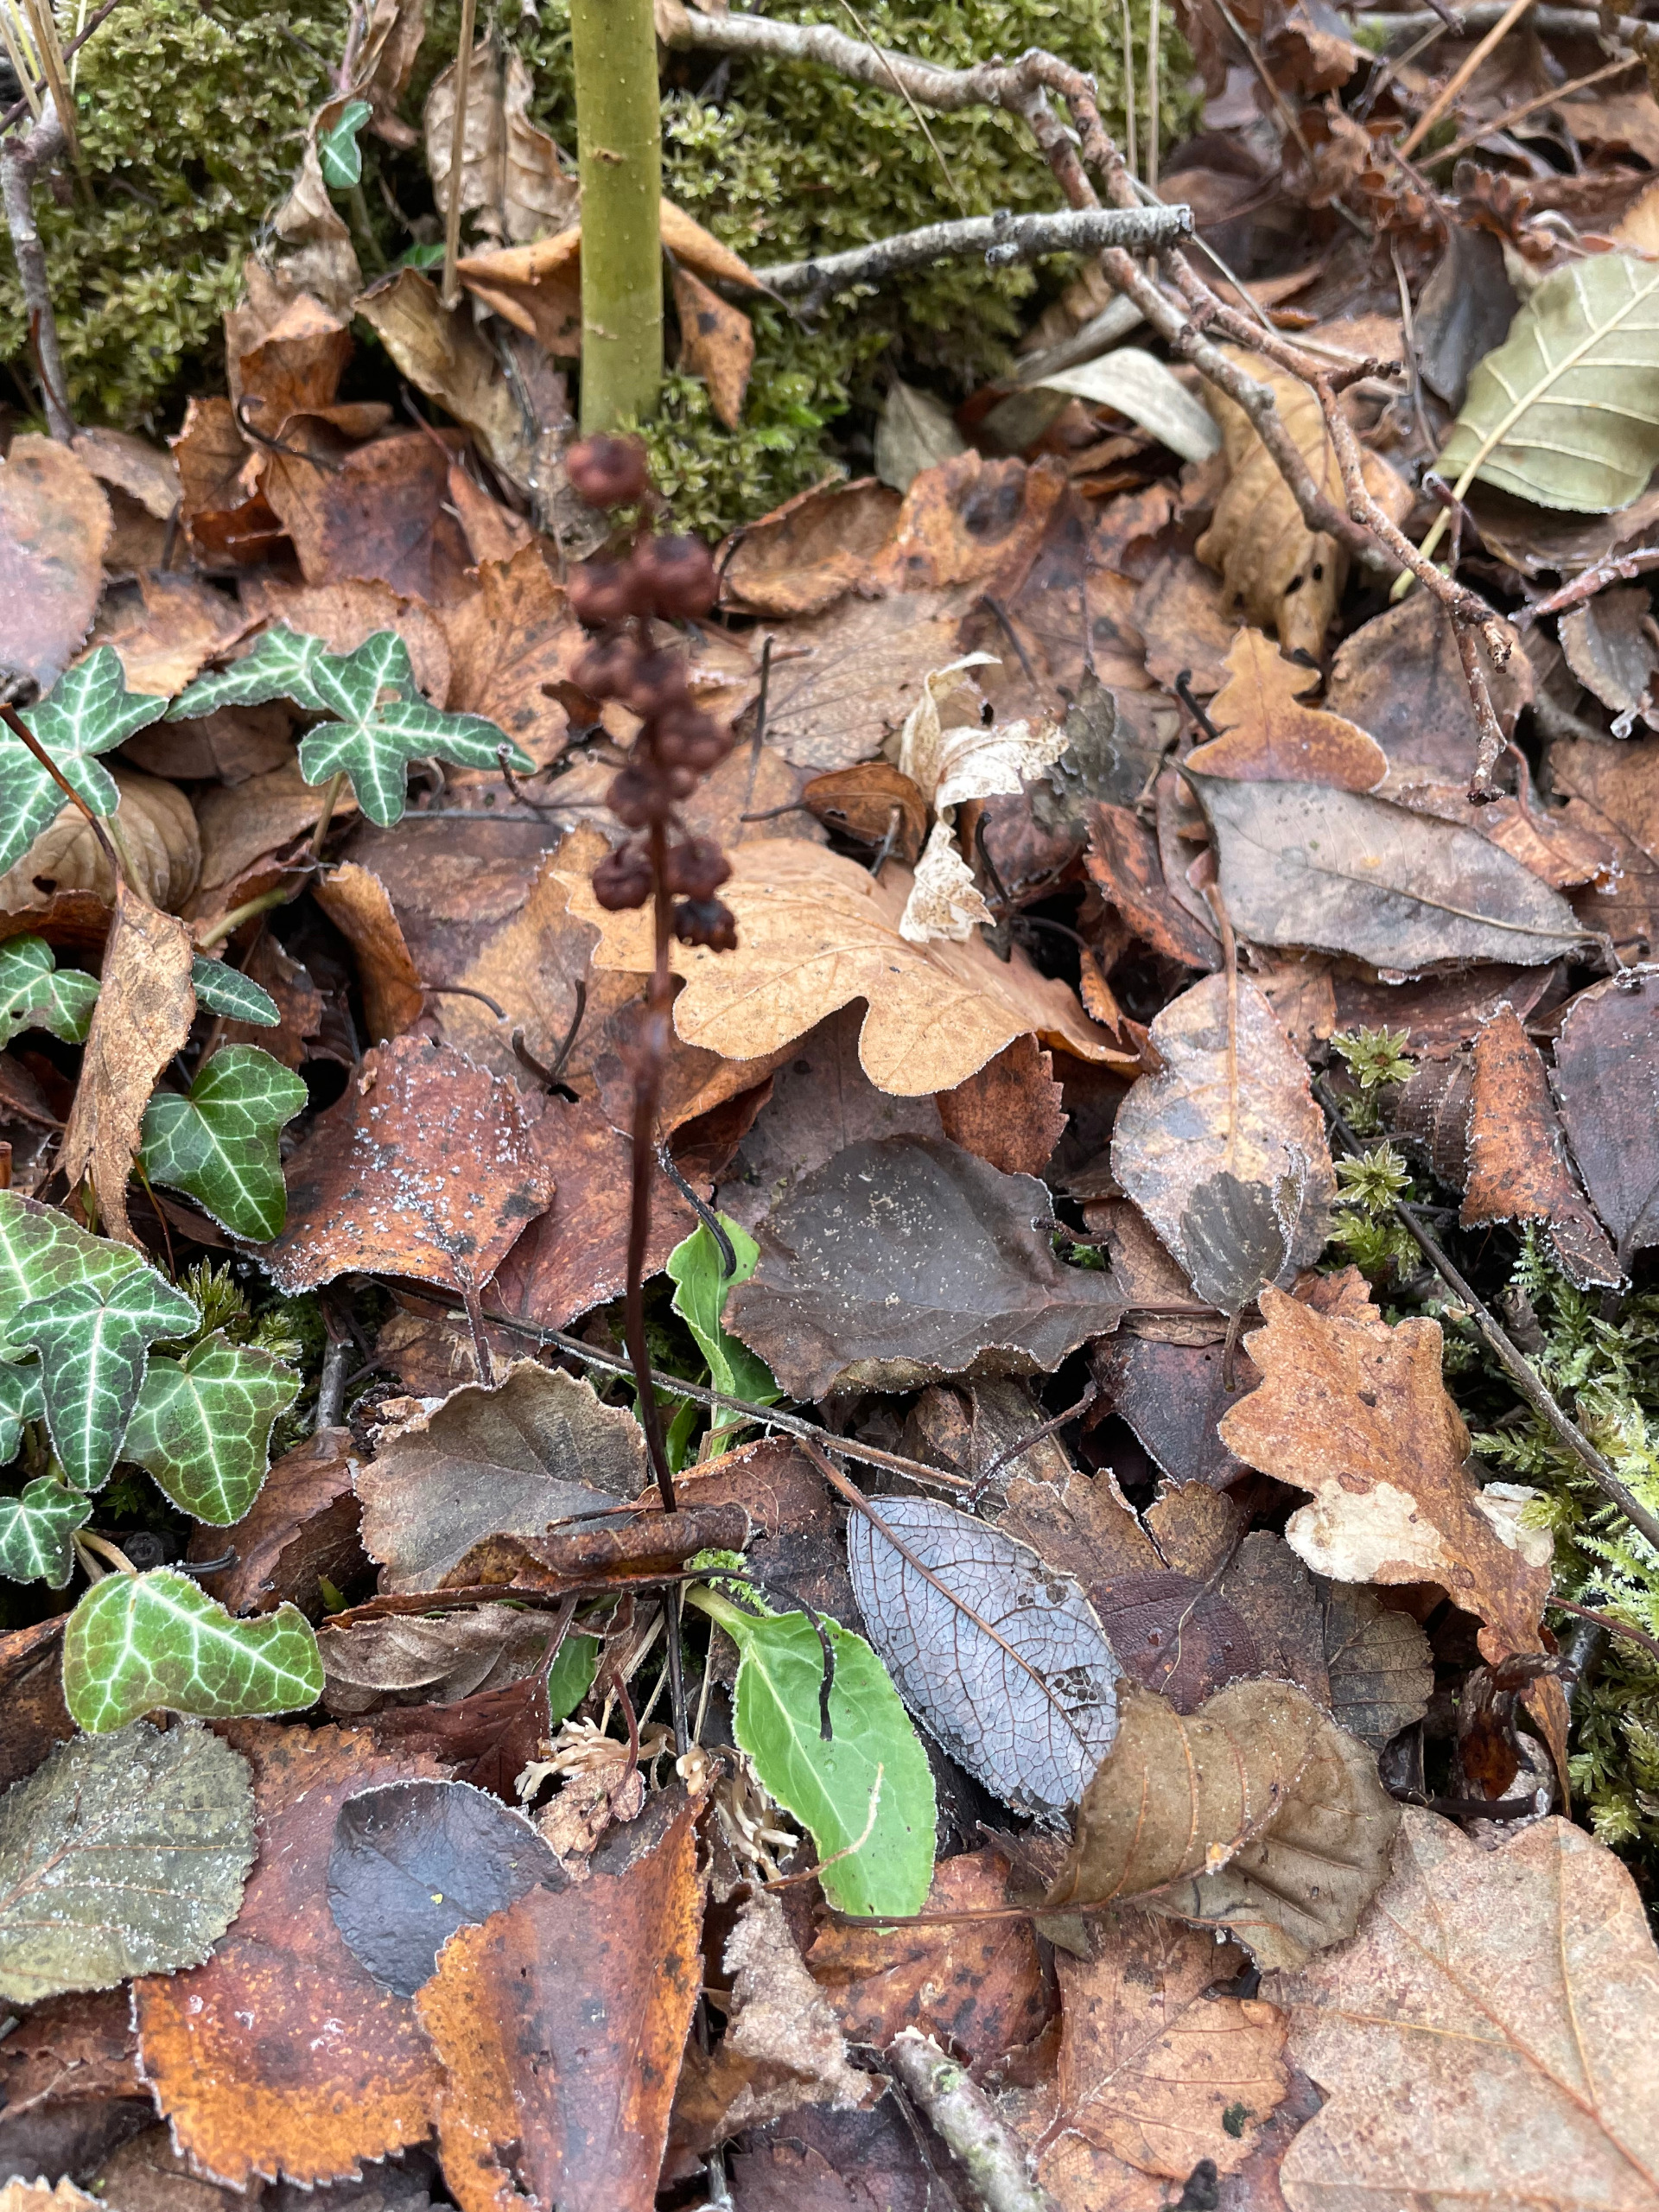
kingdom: Plantae
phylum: Tracheophyta
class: Magnoliopsida
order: Ericales
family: Ericaceae
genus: Pyrola
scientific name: Pyrola minor
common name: Liden vintergrøn
